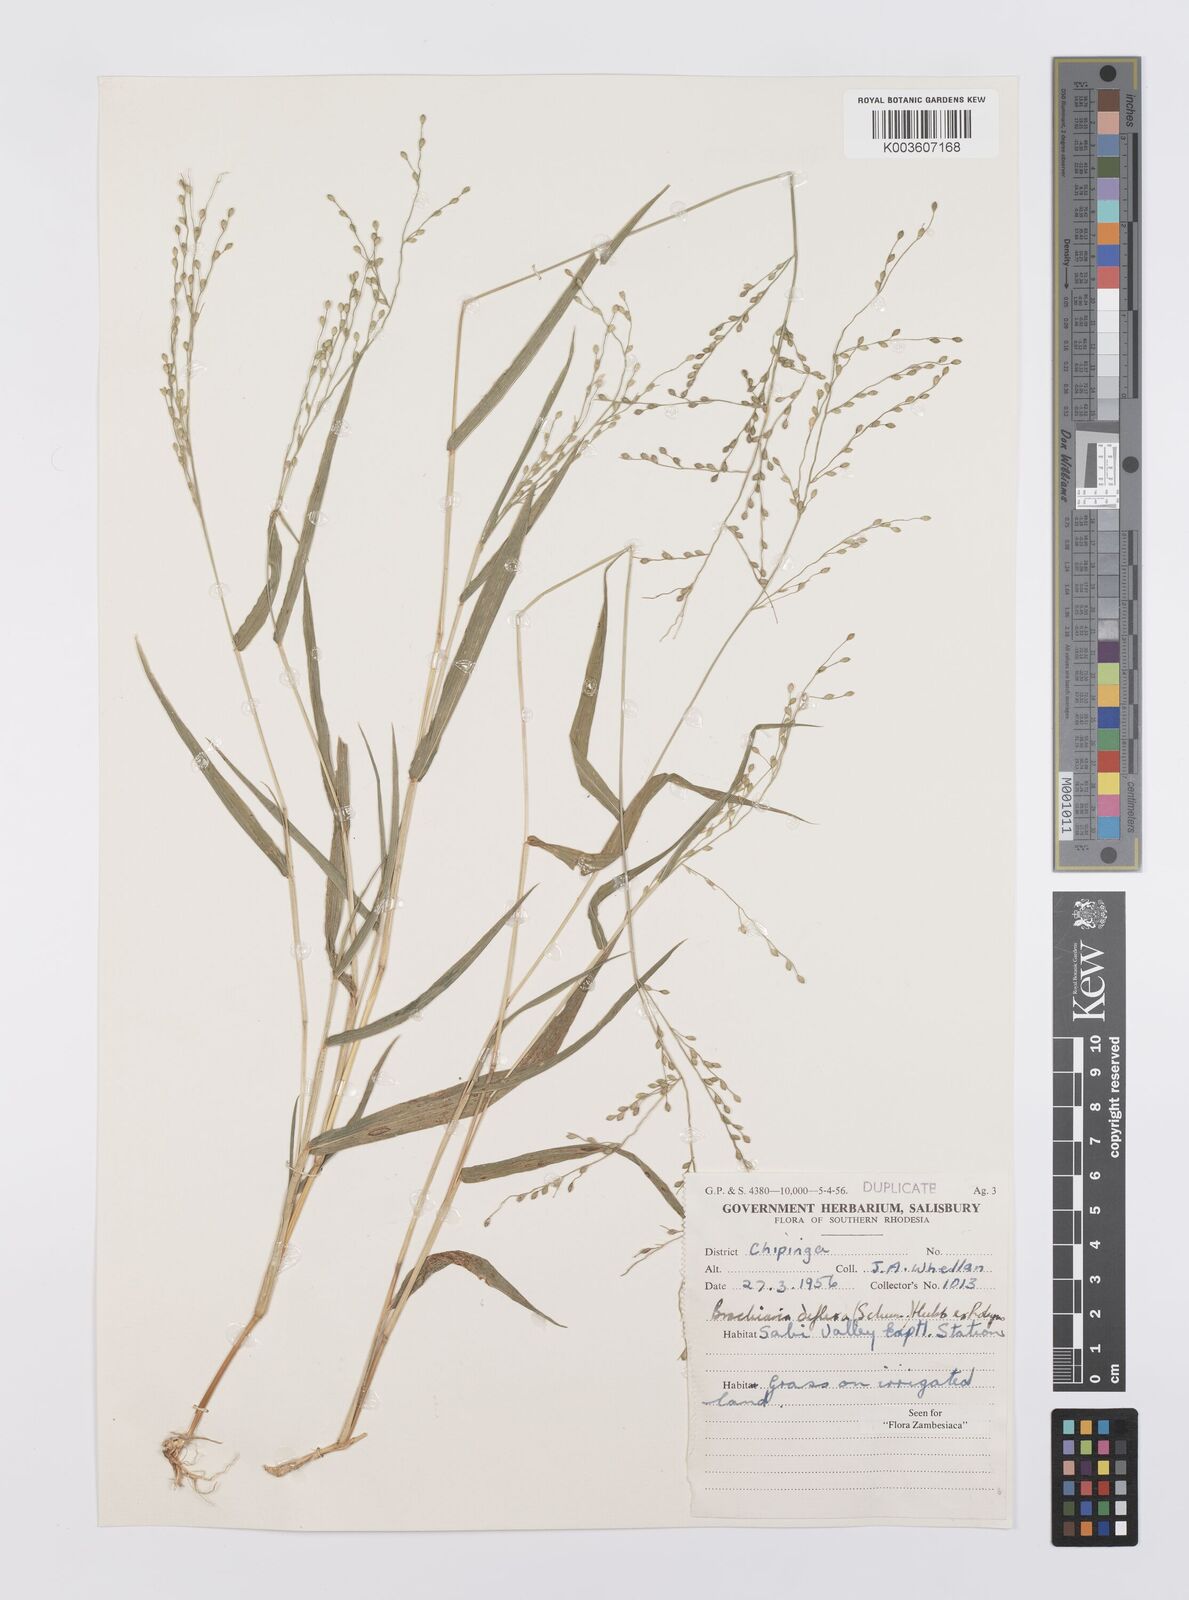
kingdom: Plantae
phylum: Tracheophyta
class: Liliopsida
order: Poales
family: Poaceae
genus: Urochloa
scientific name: Urochloa deflexa
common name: Guinea millet
